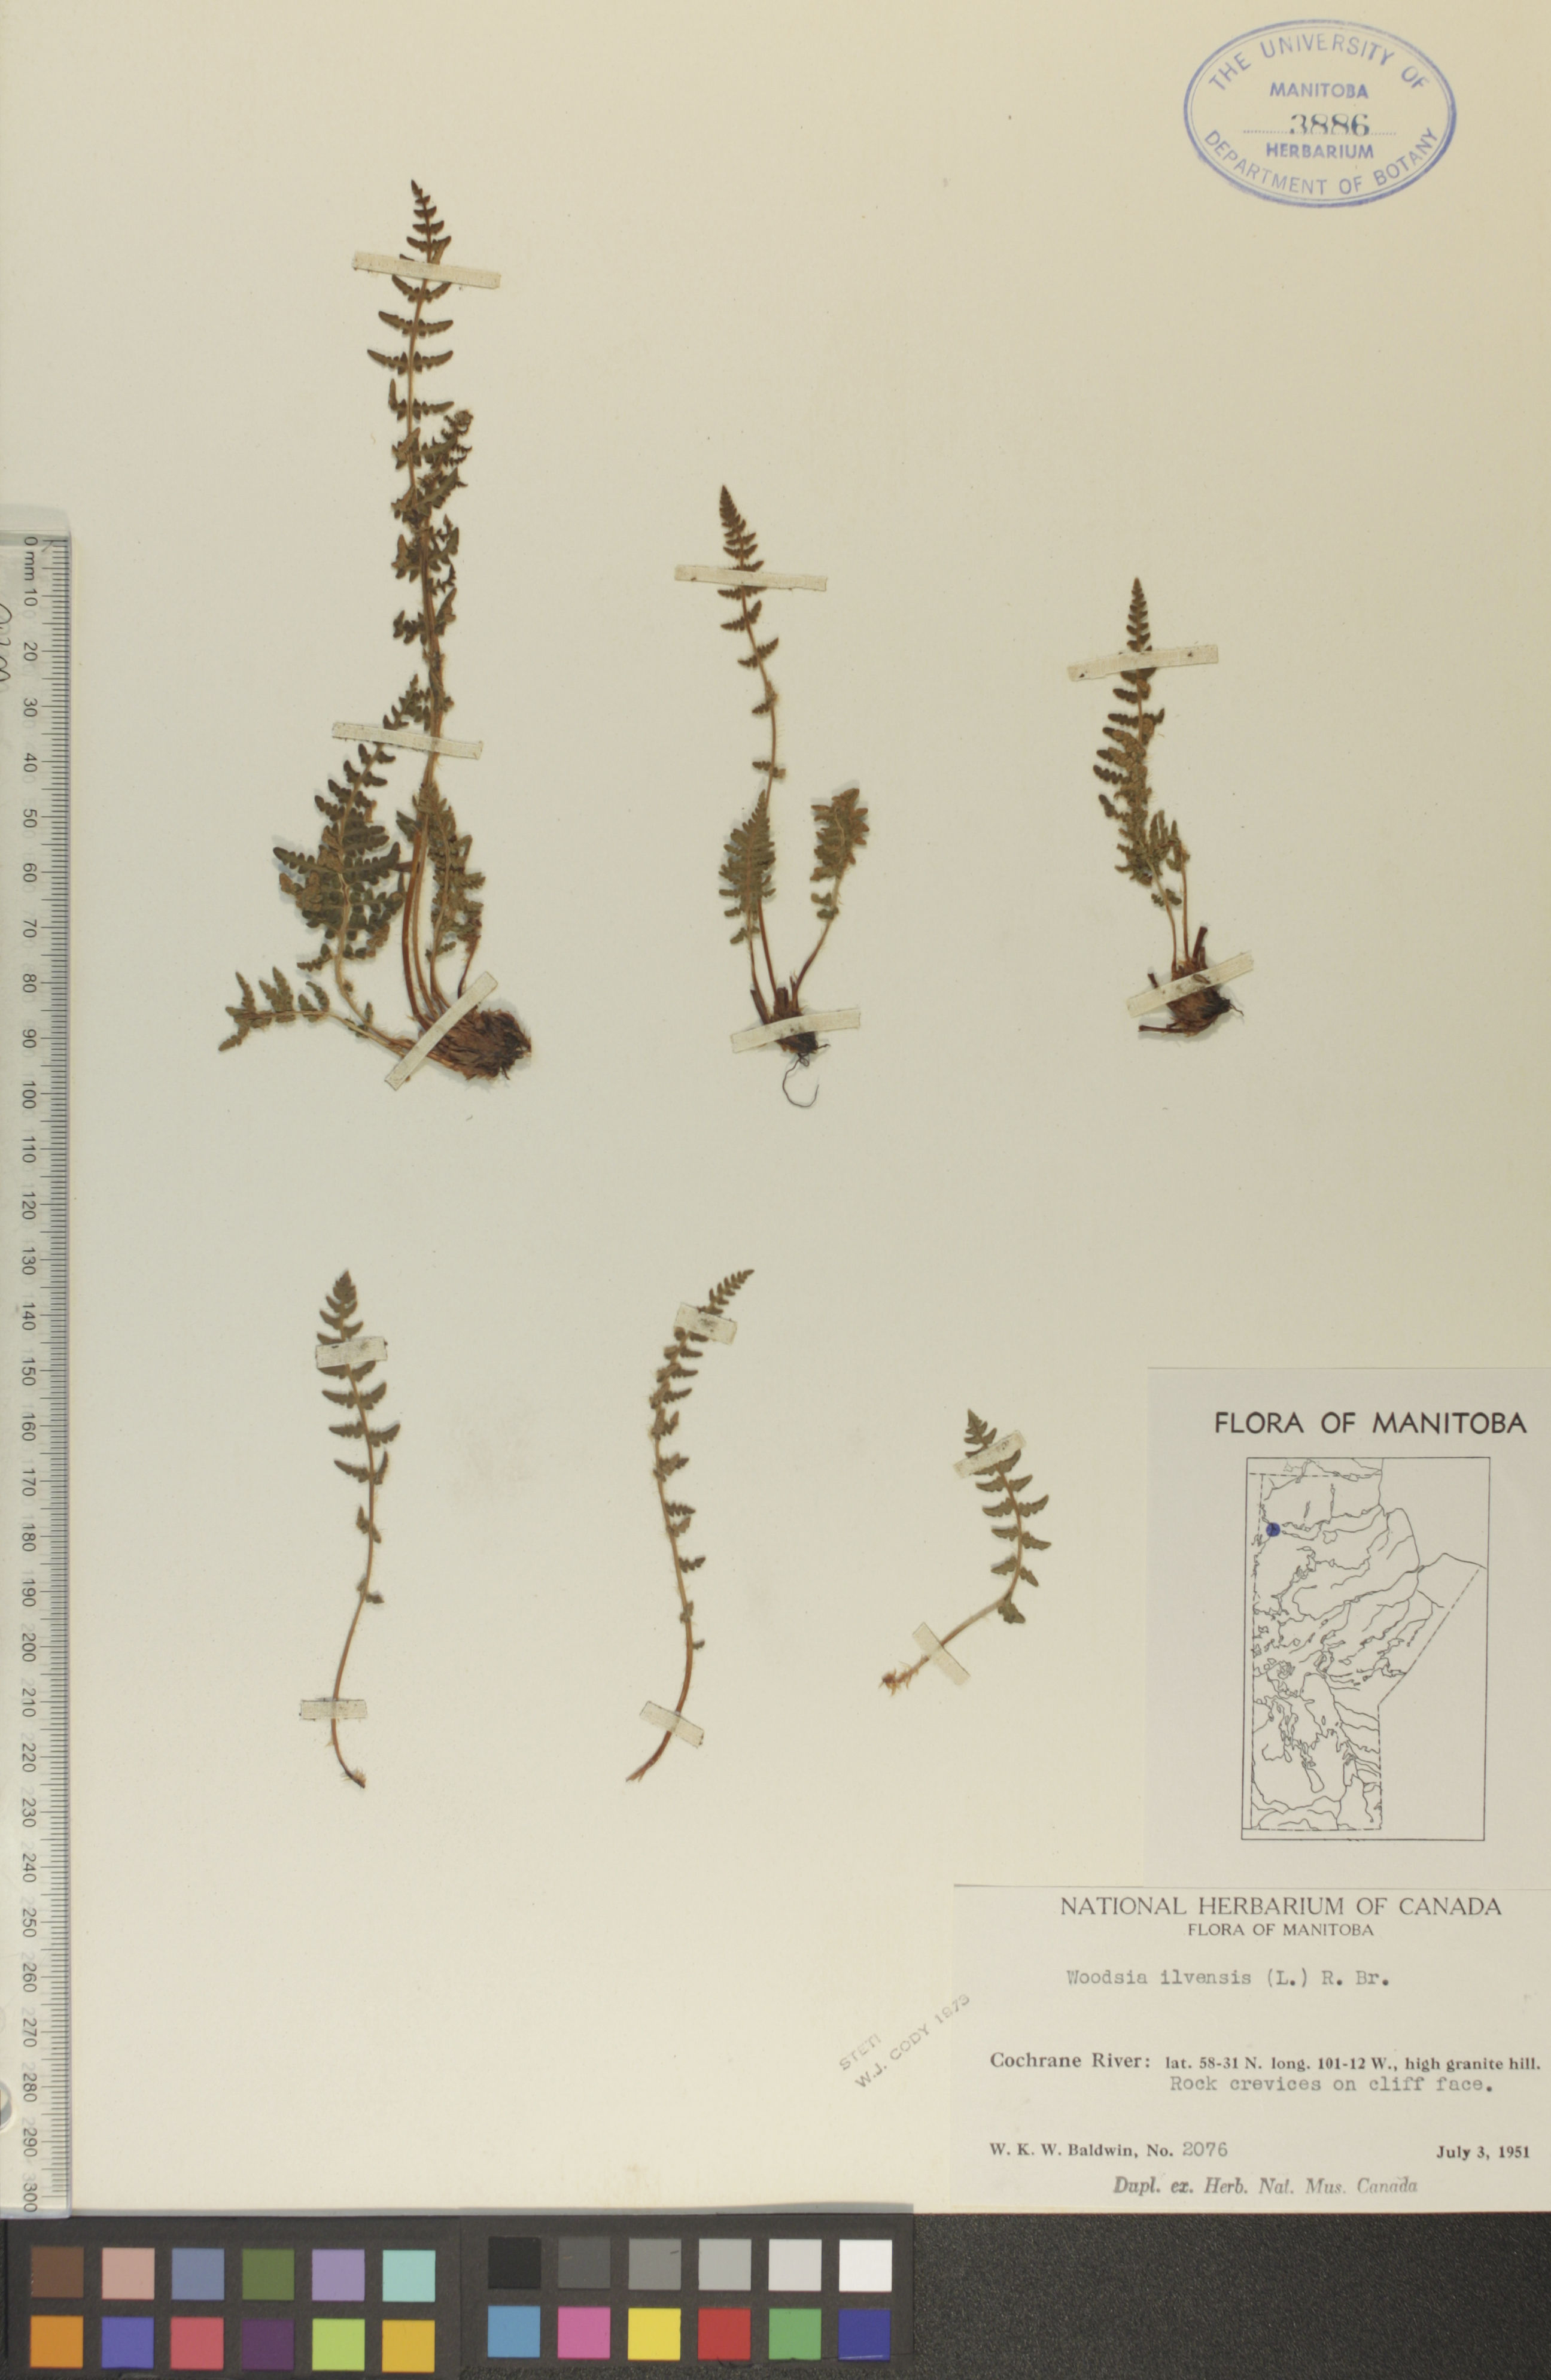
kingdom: Plantae
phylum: Tracheophyta
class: Polypodiopsida
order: Polypodiales
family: Woodsiaceae
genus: Woodsia
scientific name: Woodsia ilvensis
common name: Fragrant woodsia
